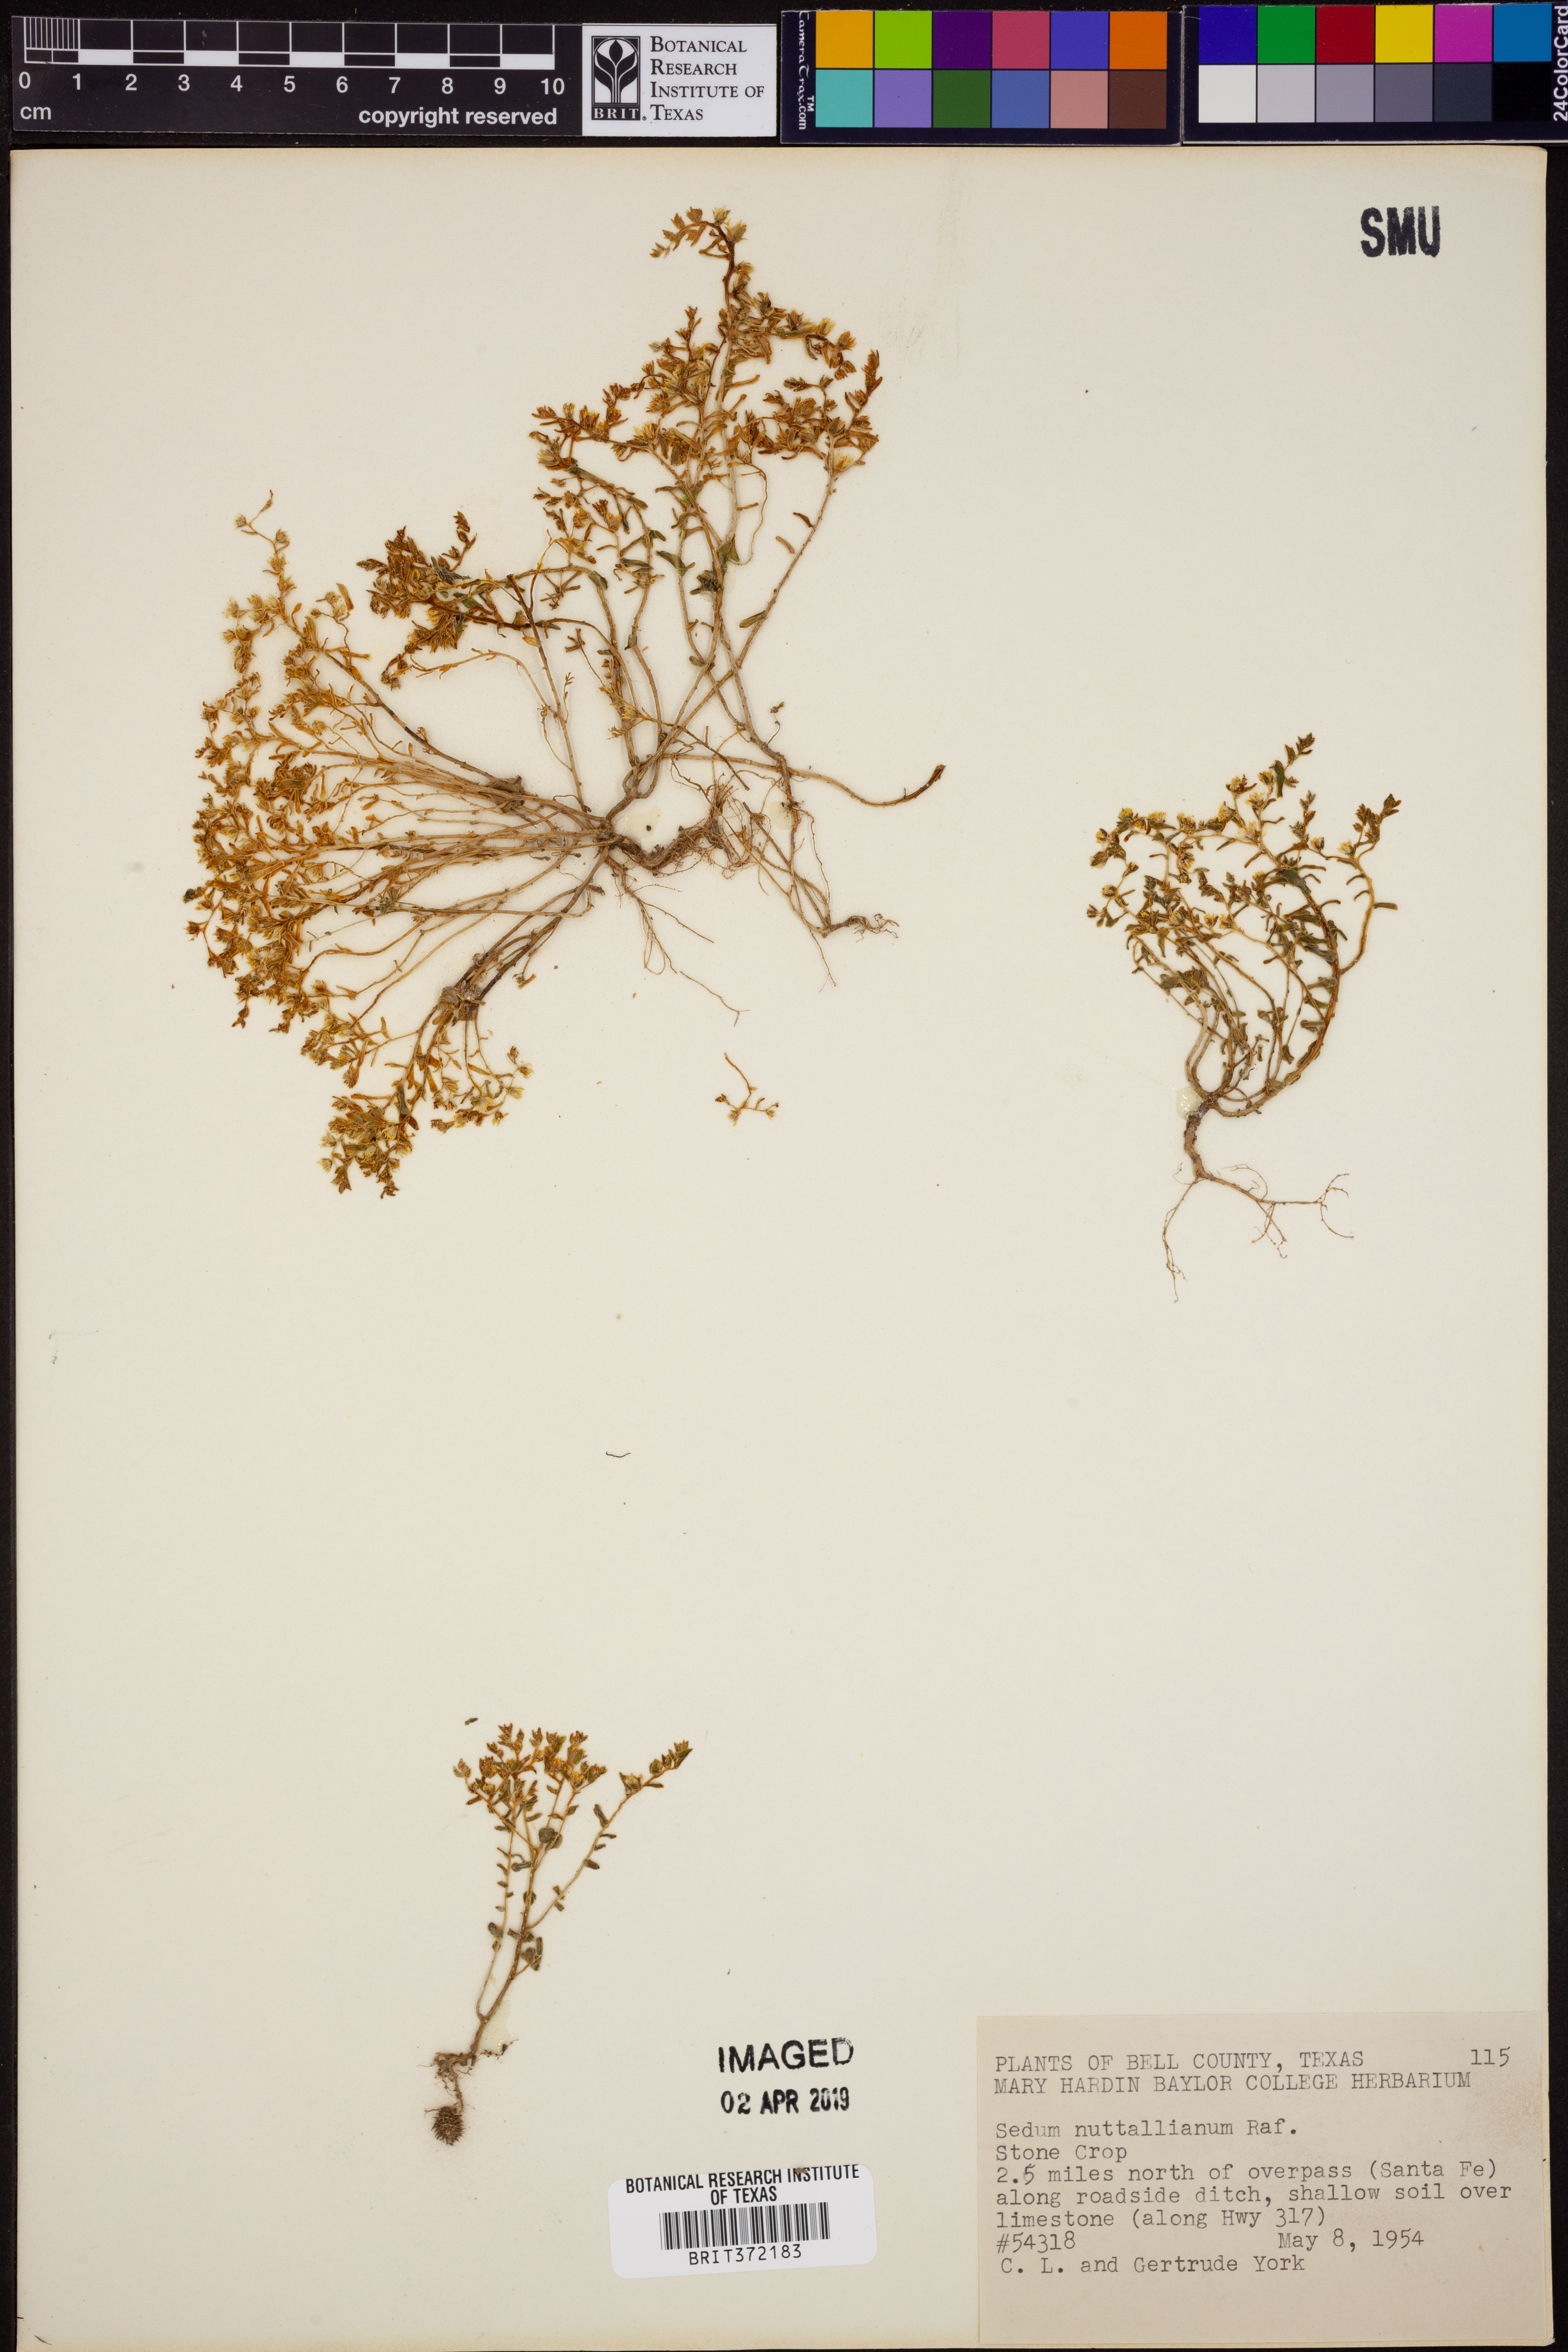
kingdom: Plantae
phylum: Tracheophyta
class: Magnoliopsida
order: Saxifragales
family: Crassulaceae
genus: Sedum
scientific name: Sedum nuttallii
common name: Yellow stonecrop
